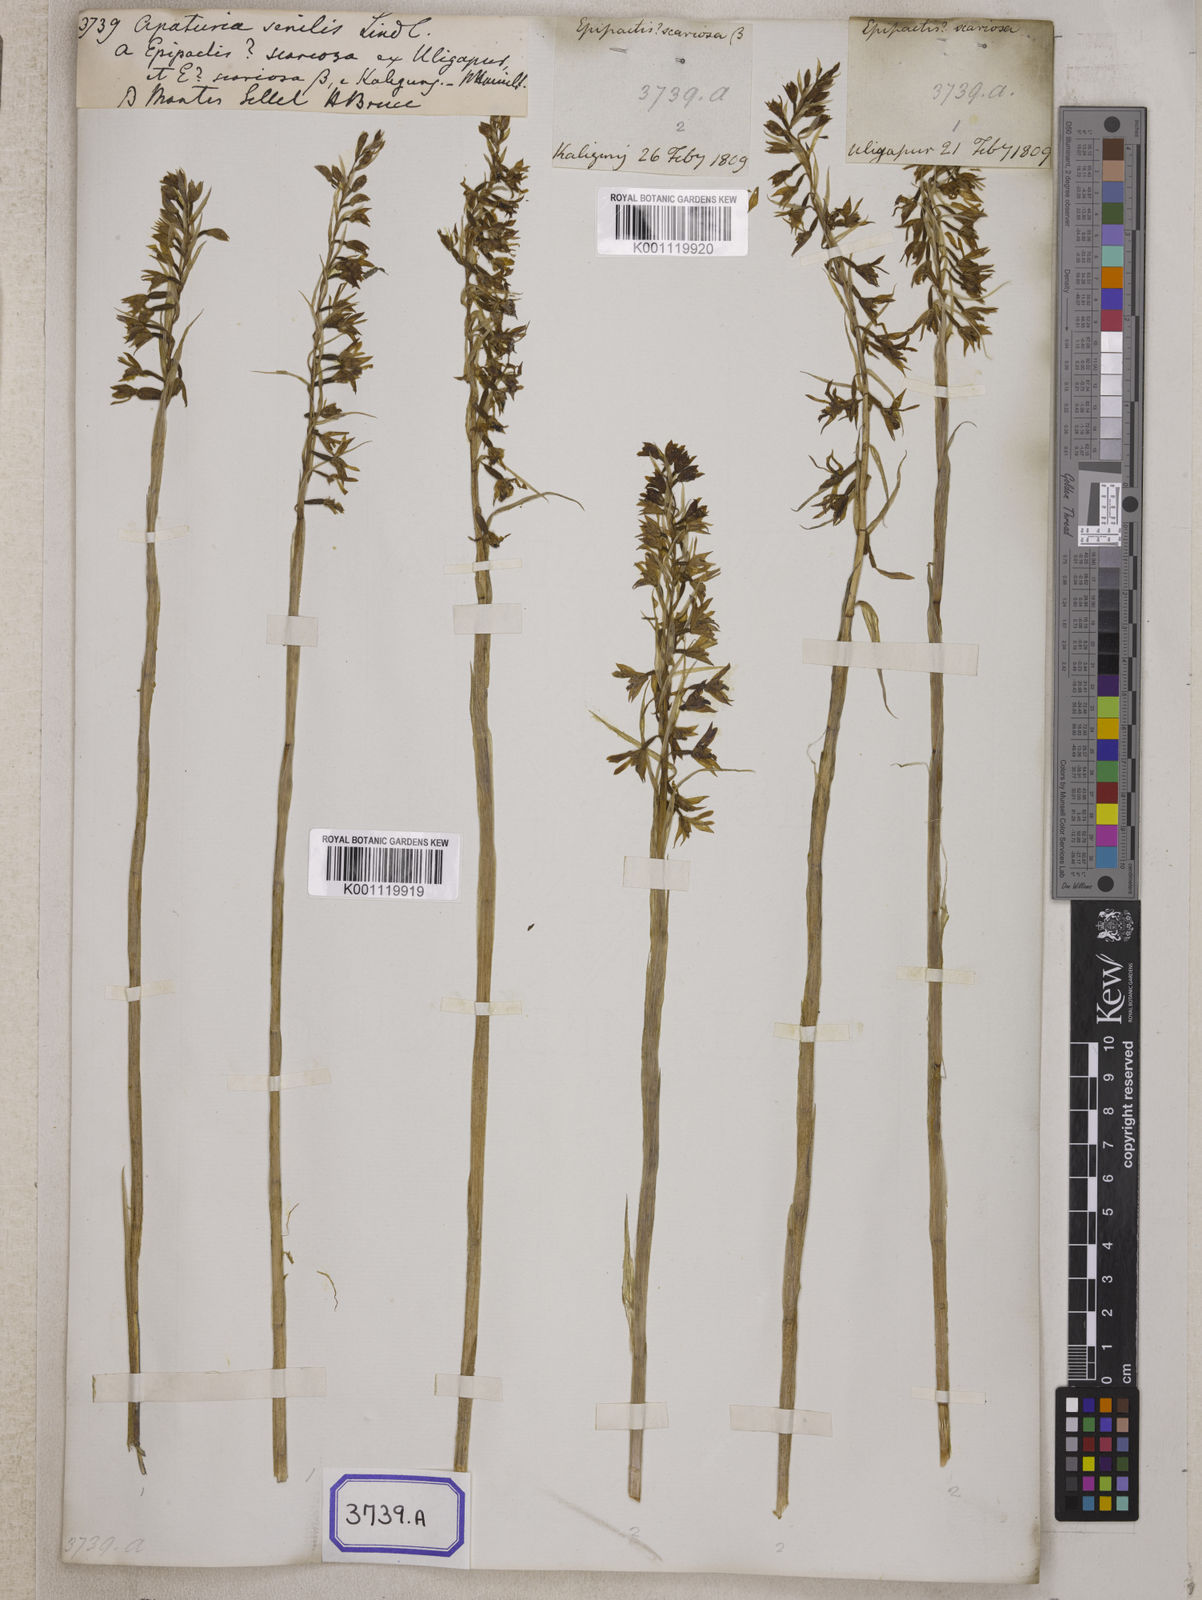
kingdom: Plantae
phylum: Tracheophyta
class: Liliopsida
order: Asparagales
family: Orchidaceae
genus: Pachystoma
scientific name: Pachystoma pubescens
